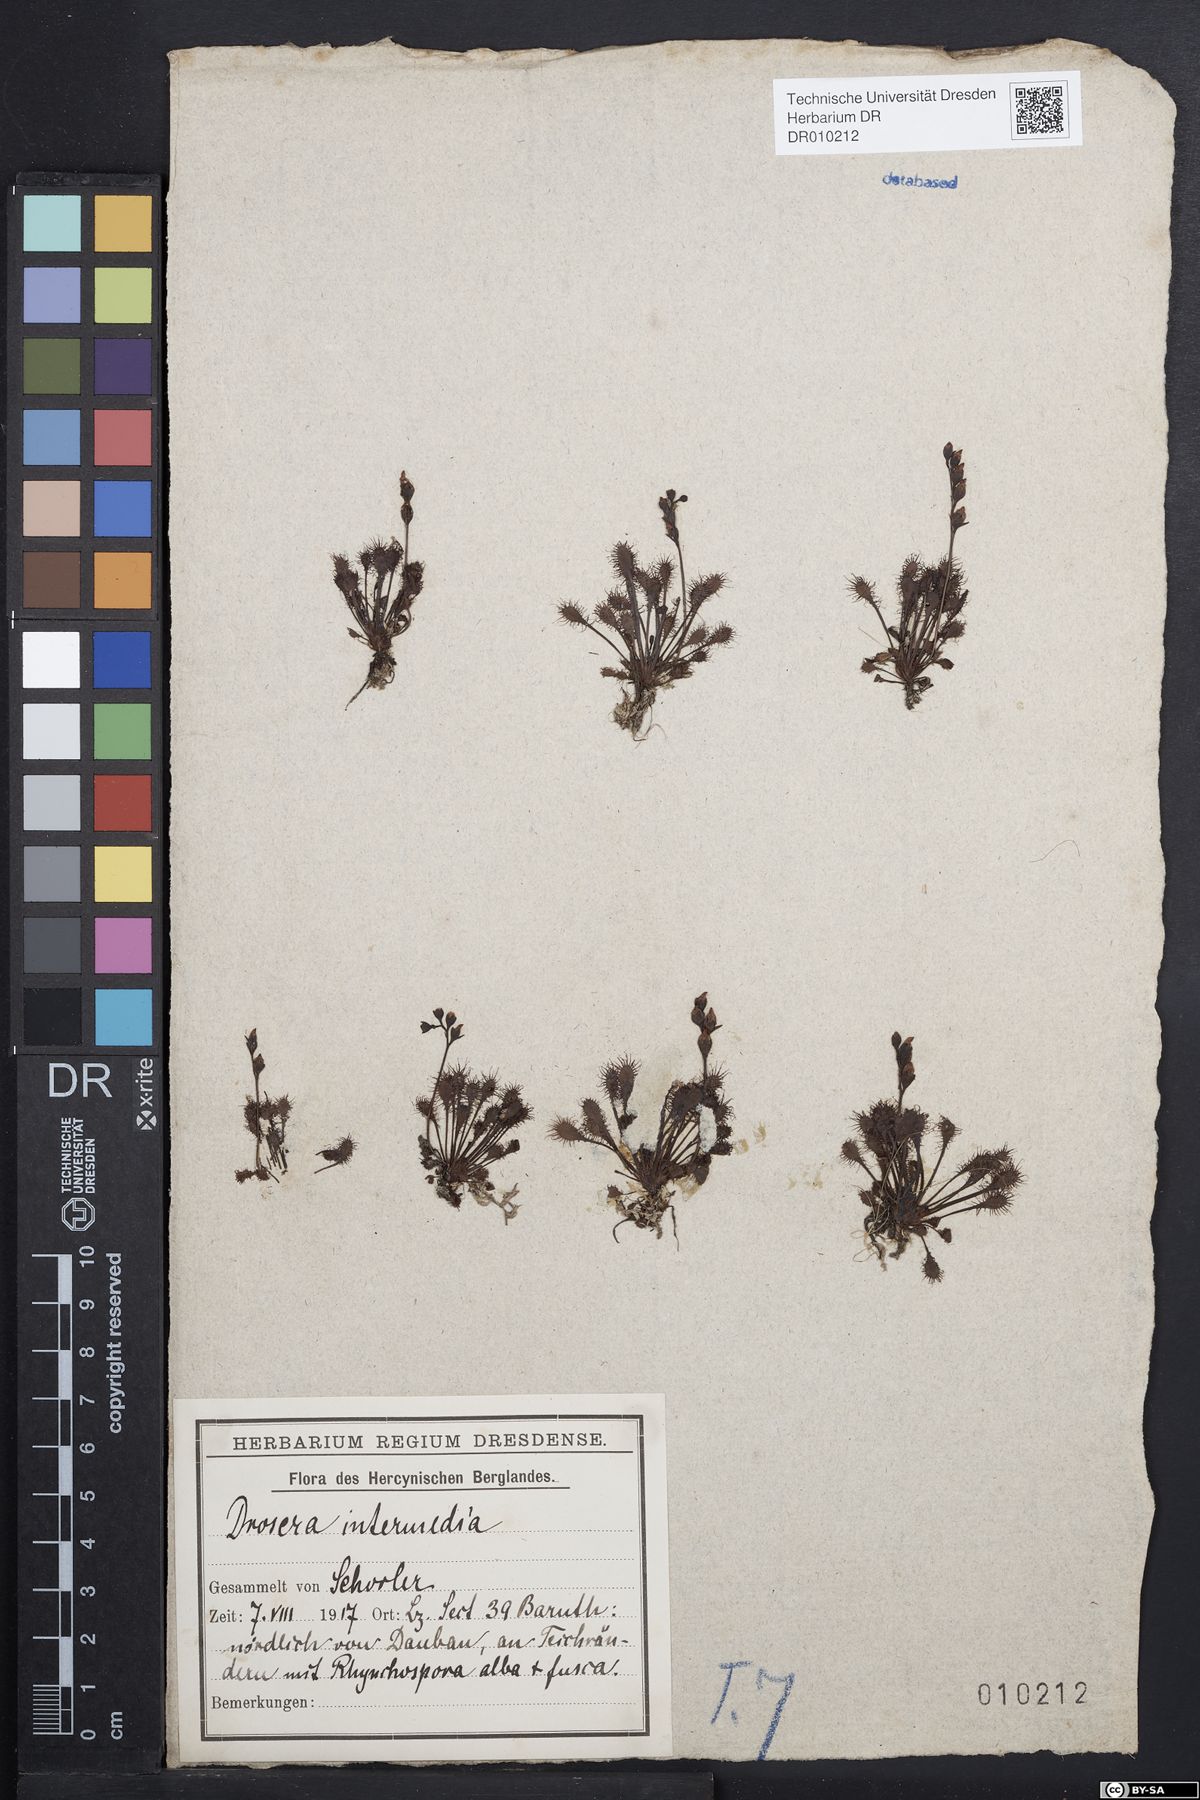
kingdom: Plantae
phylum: Tracheophyta
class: Magnoliopsida
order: Caryophyllales
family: Droseraceae
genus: Drosera
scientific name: Drosera intermedia
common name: Oblong-leaved sundew
